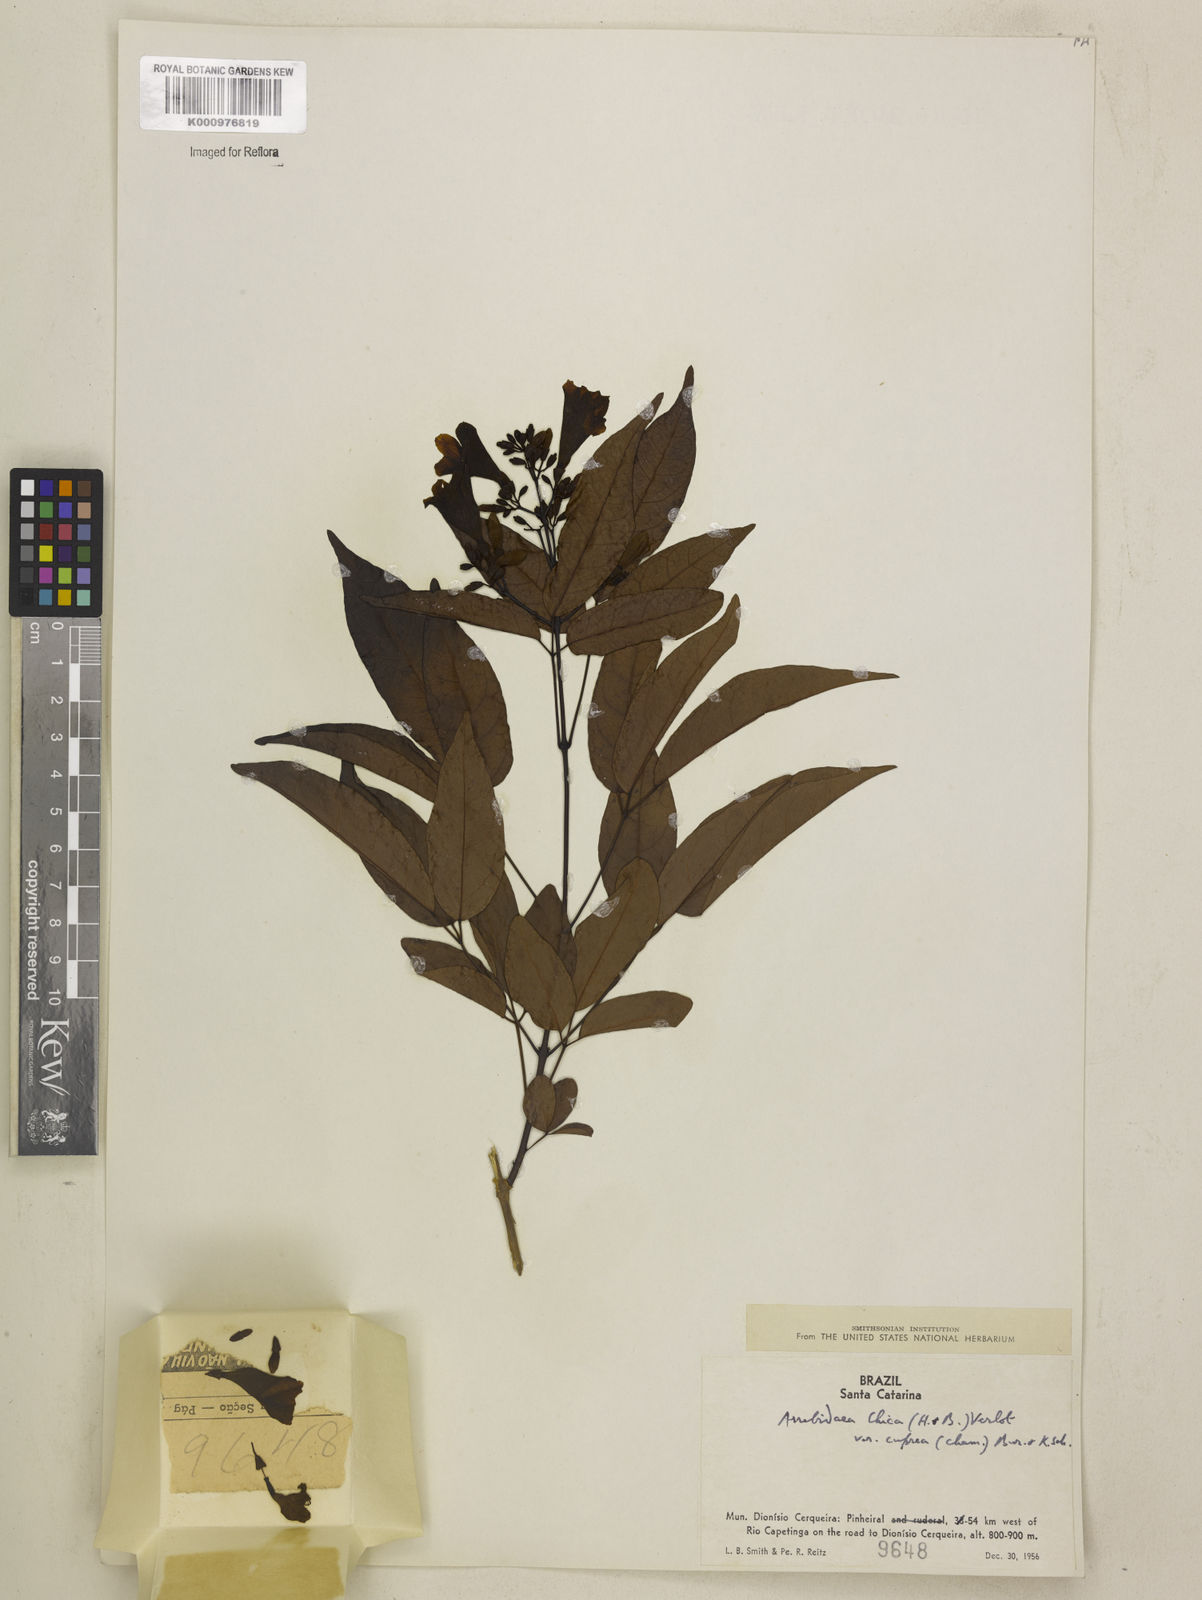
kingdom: Plantae
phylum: Tracheophyta
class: Magnoliopsida
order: Lamiales
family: Bignoniaceae
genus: Fridericia
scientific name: Fridericia chica
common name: Cricketvine
